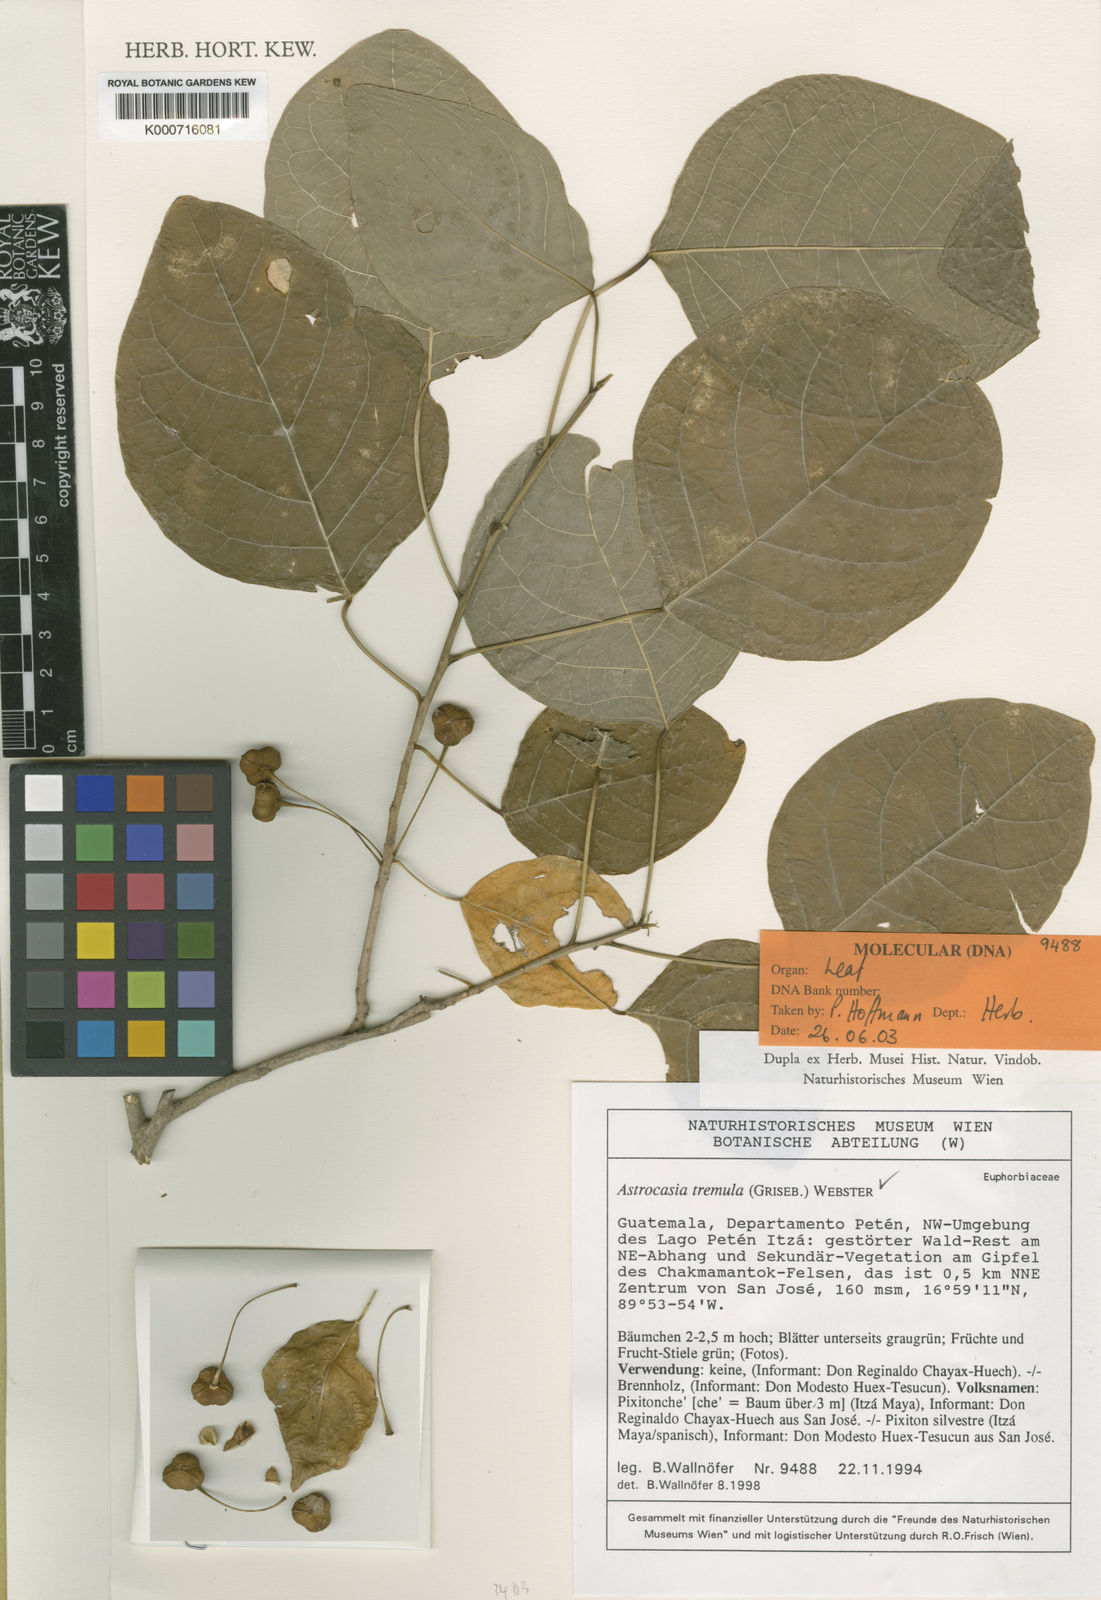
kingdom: Plantae
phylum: Tracheophyta
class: Magnoliopsida
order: Malpighiales
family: Phyllanthaceae
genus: Astrocasia
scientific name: Astrocasia tremula
